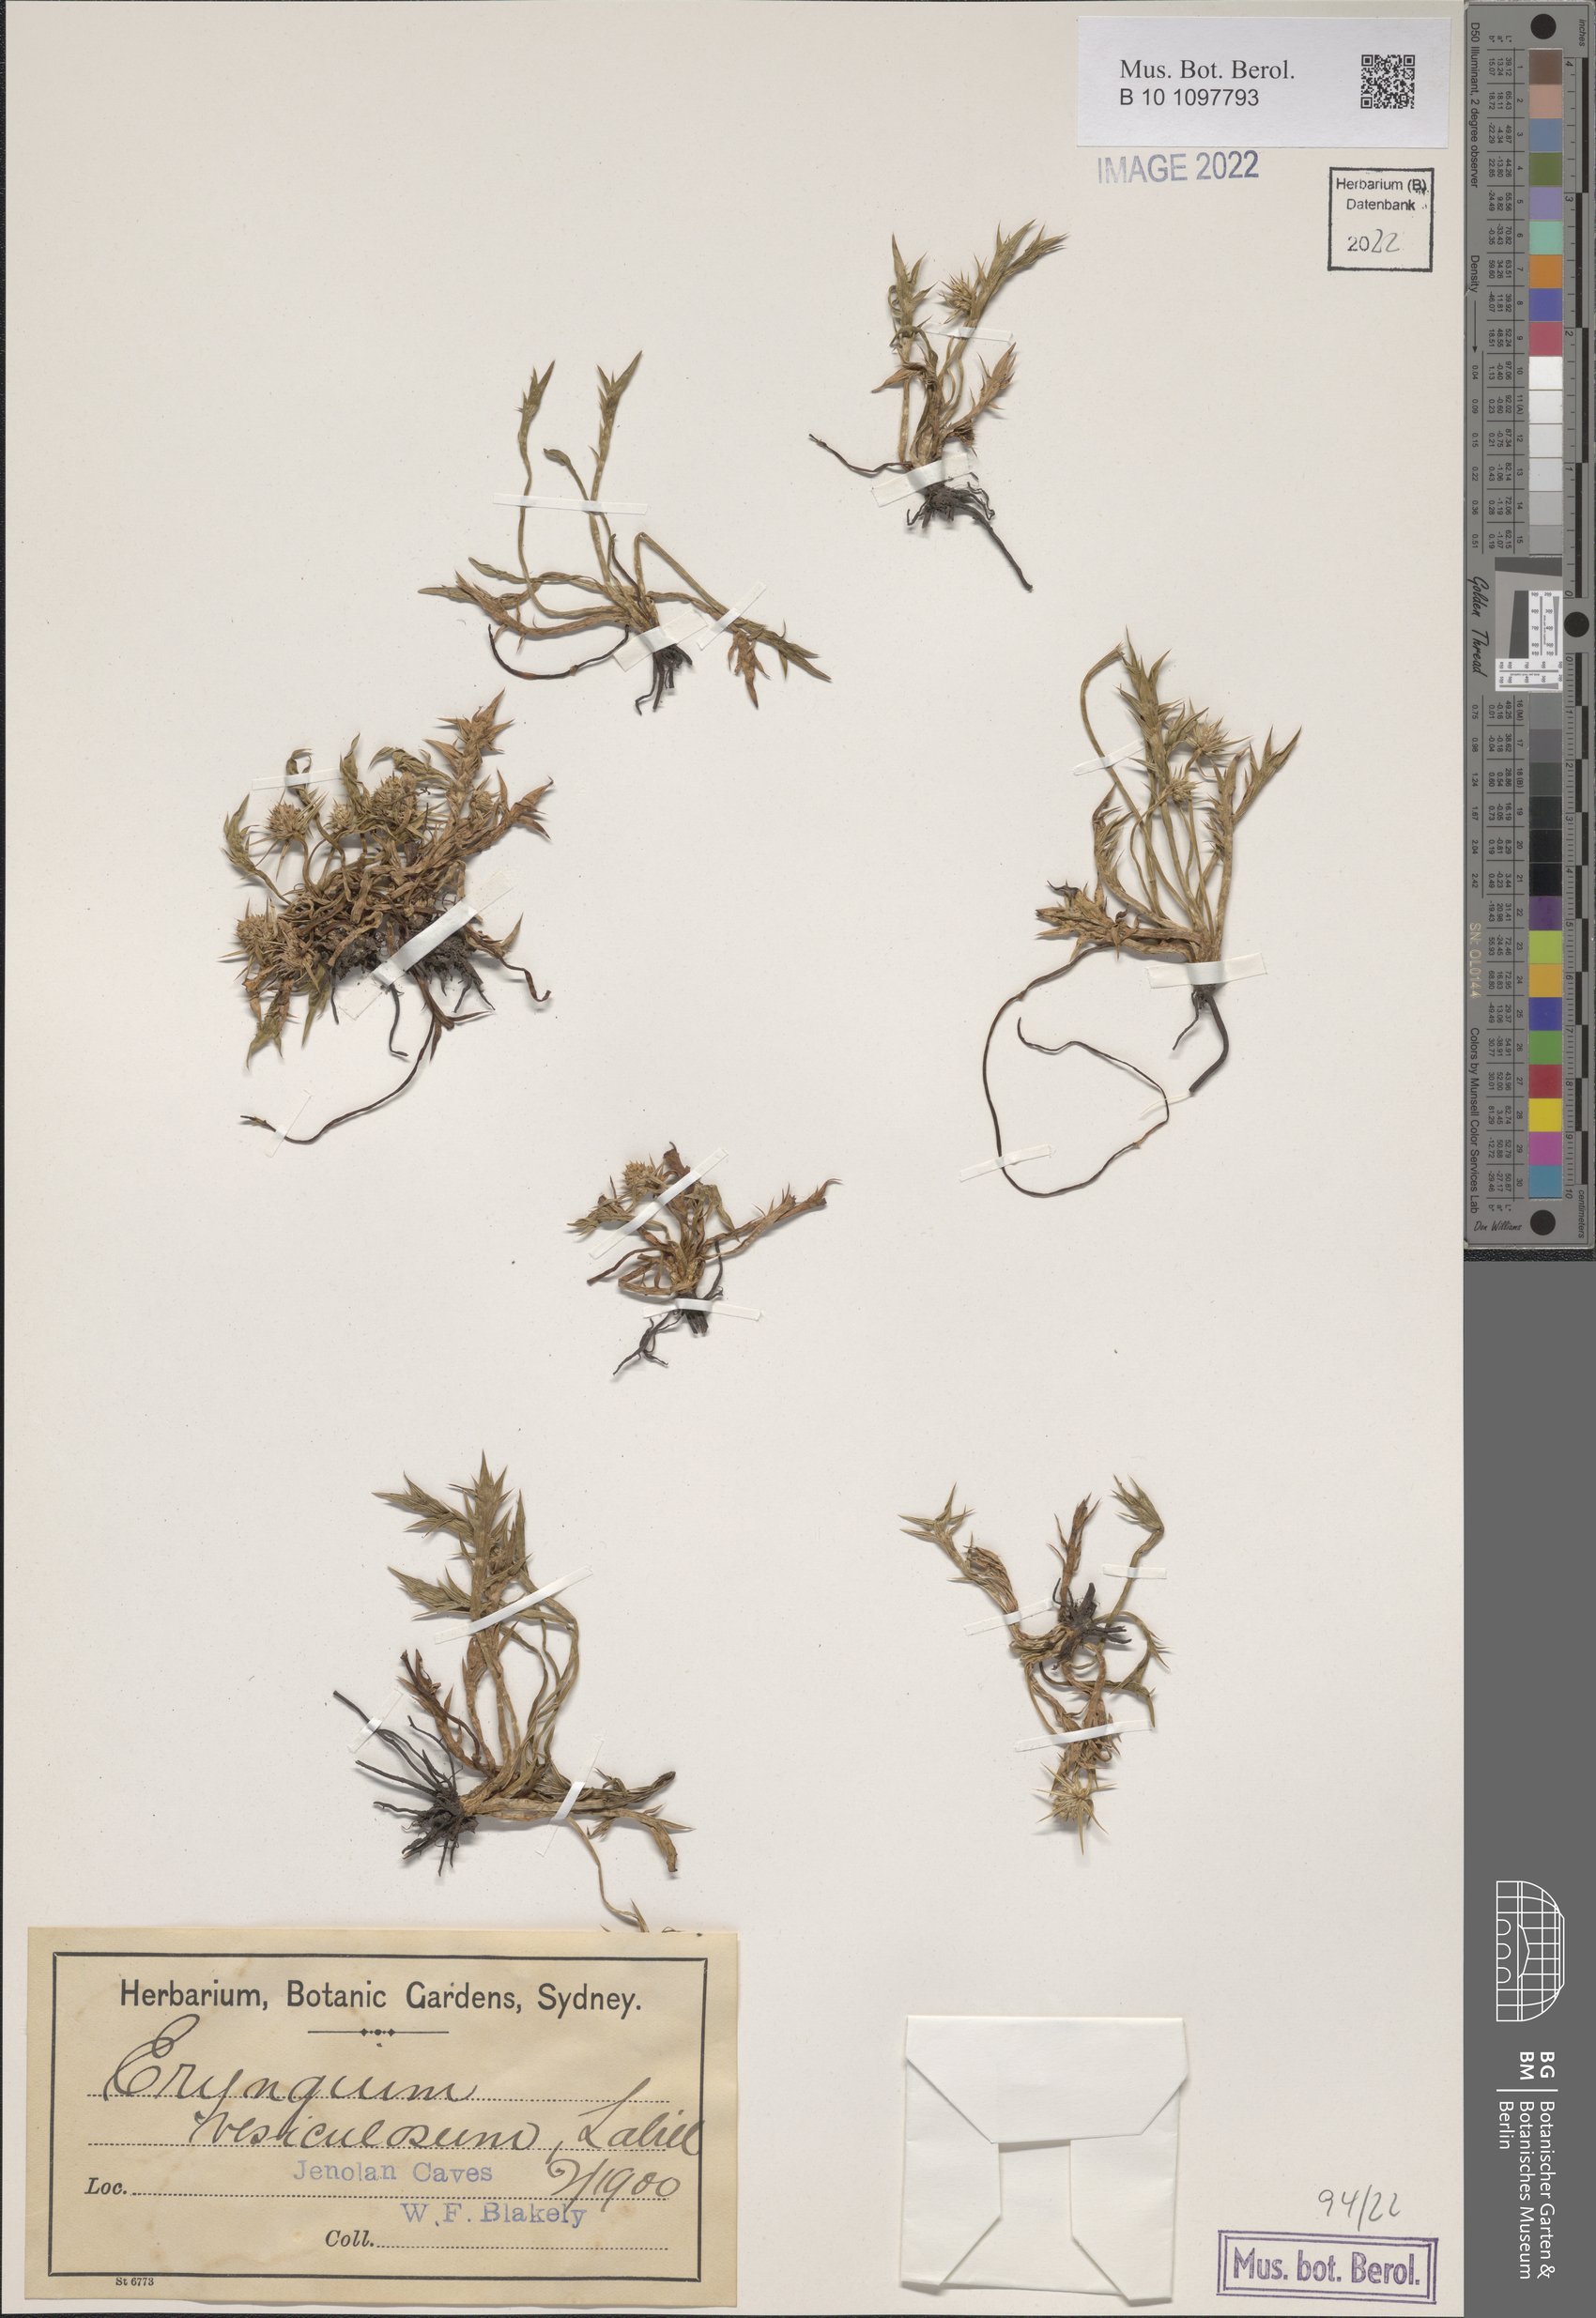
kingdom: Plantae
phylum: Tracheophyta
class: Magnoliopsida
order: Apiales
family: Apiaceae
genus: Eryngium
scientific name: Eryngium vesiculosum
